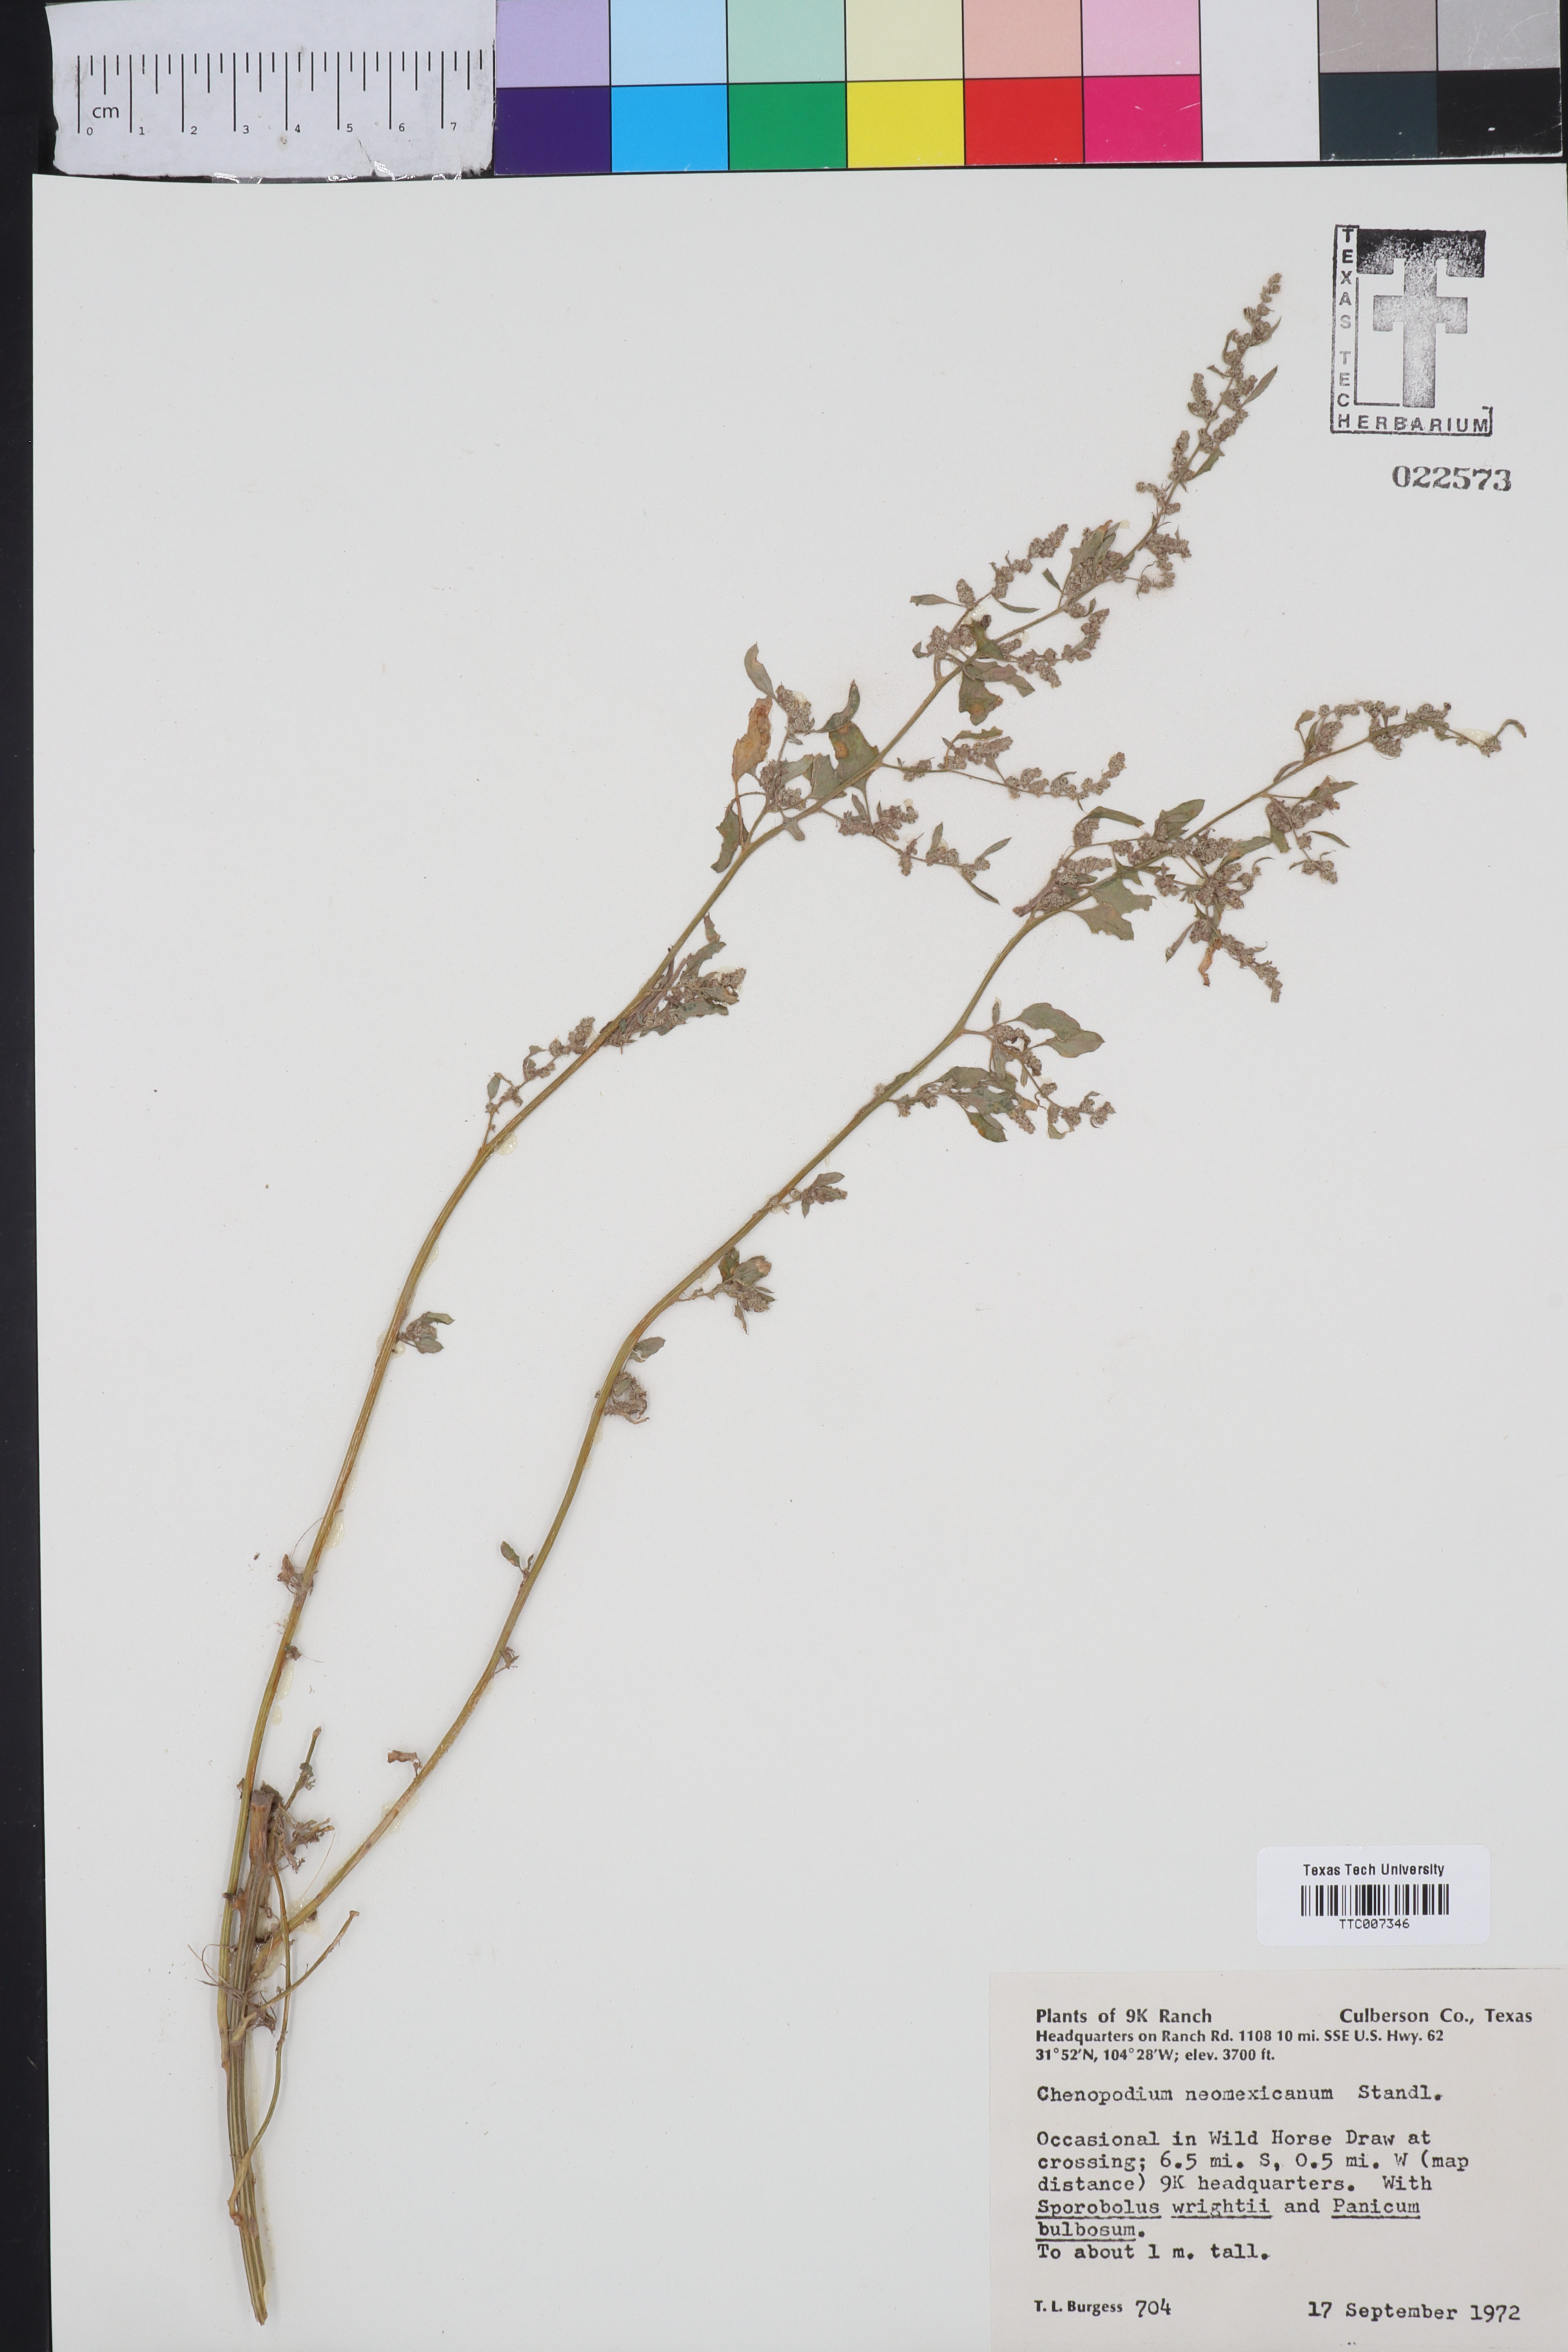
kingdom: Plantae
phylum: Tracheophyta
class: Magnoliopsida
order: Caryophyllales
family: Amaranthaceae
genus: Chenopodium
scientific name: Chenopodium neomexicanum
